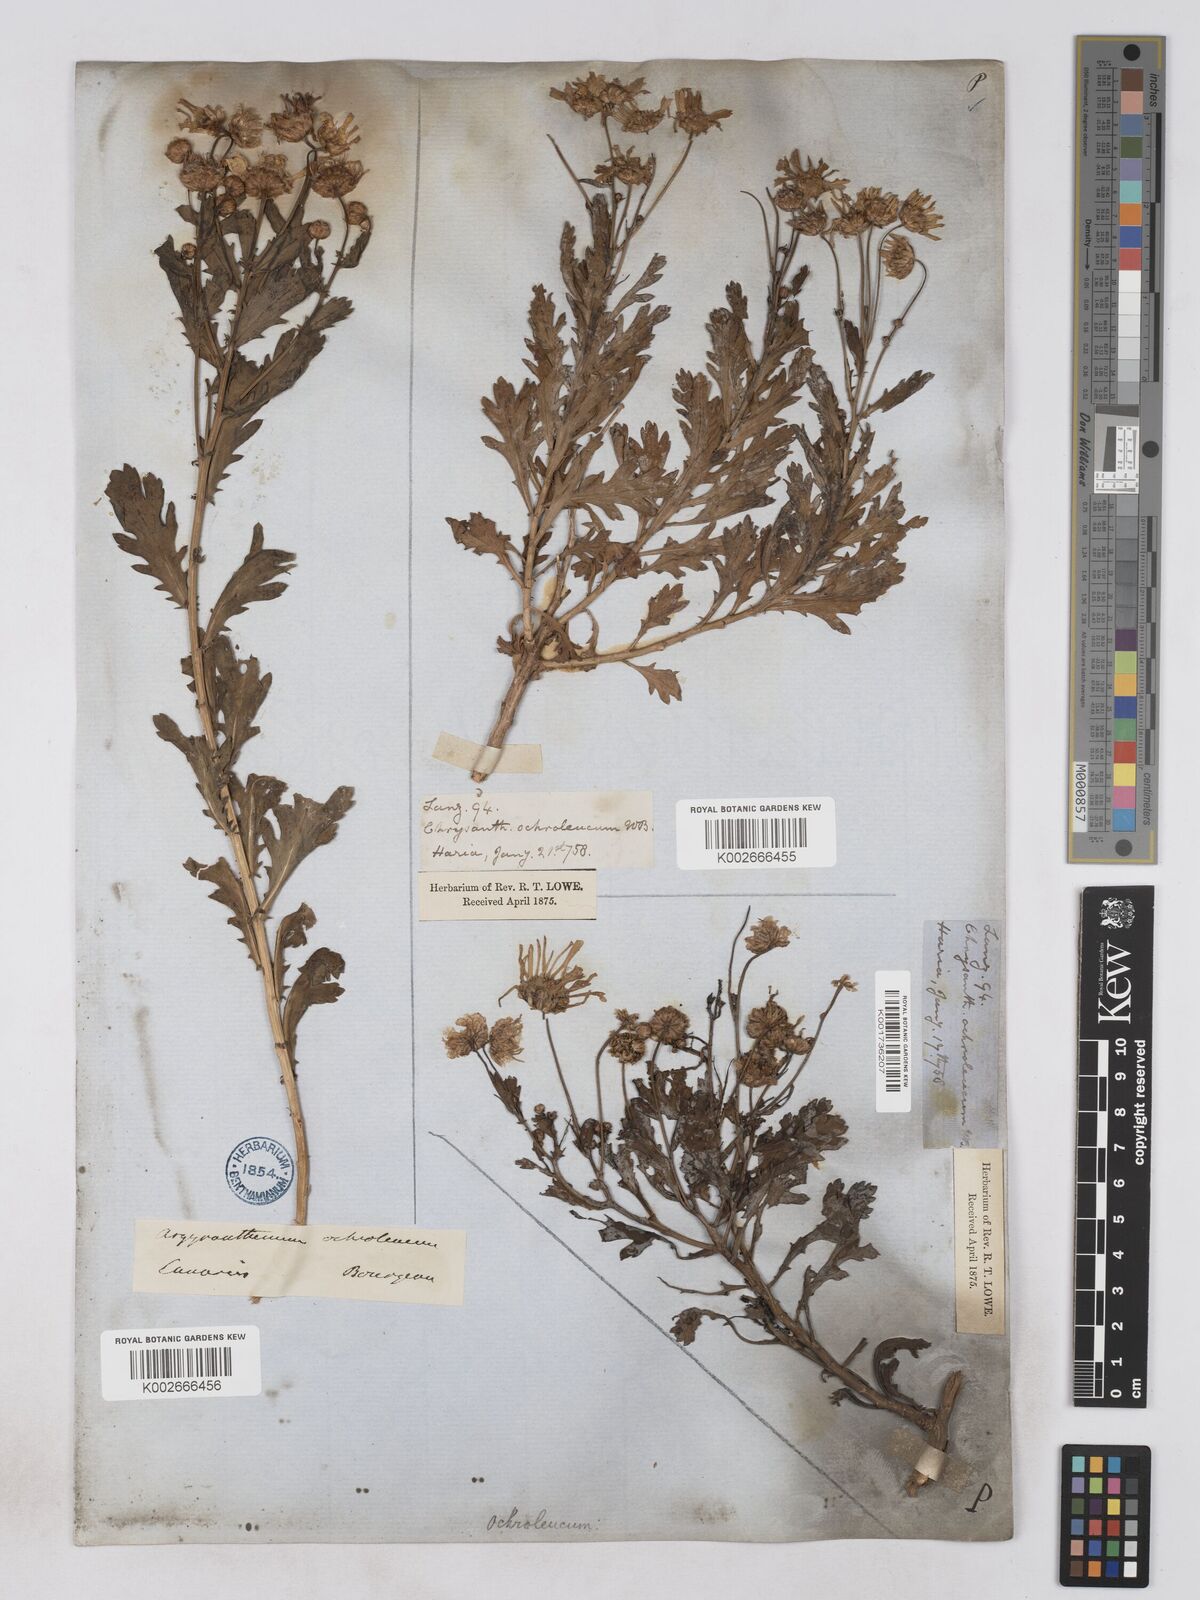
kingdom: Plantae
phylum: Tracheophyta
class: Magnoliopsida
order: Asterales
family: Asteraceae
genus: Argyranthemum
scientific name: Argyranthemum maderense
